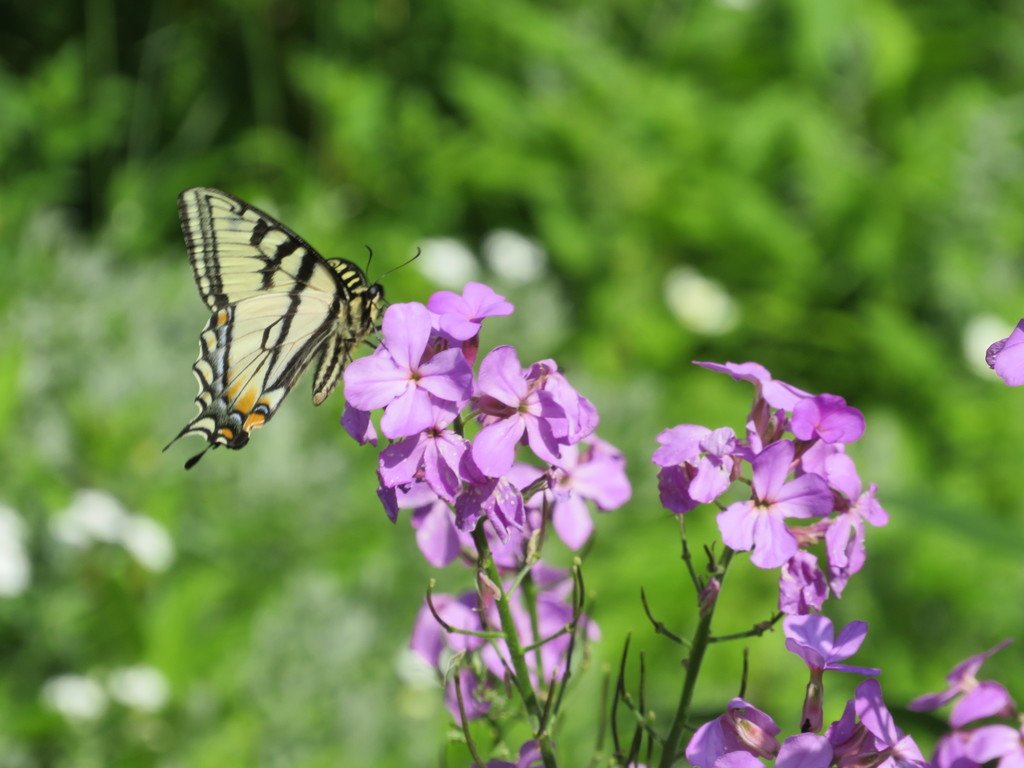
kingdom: Animalia
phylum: Arthropoda
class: Insecta
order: Lepidoptera
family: Papilionidae
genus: Pterourus
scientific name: Pterourus canadensis
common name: Canadian Tiger Swallowtail
